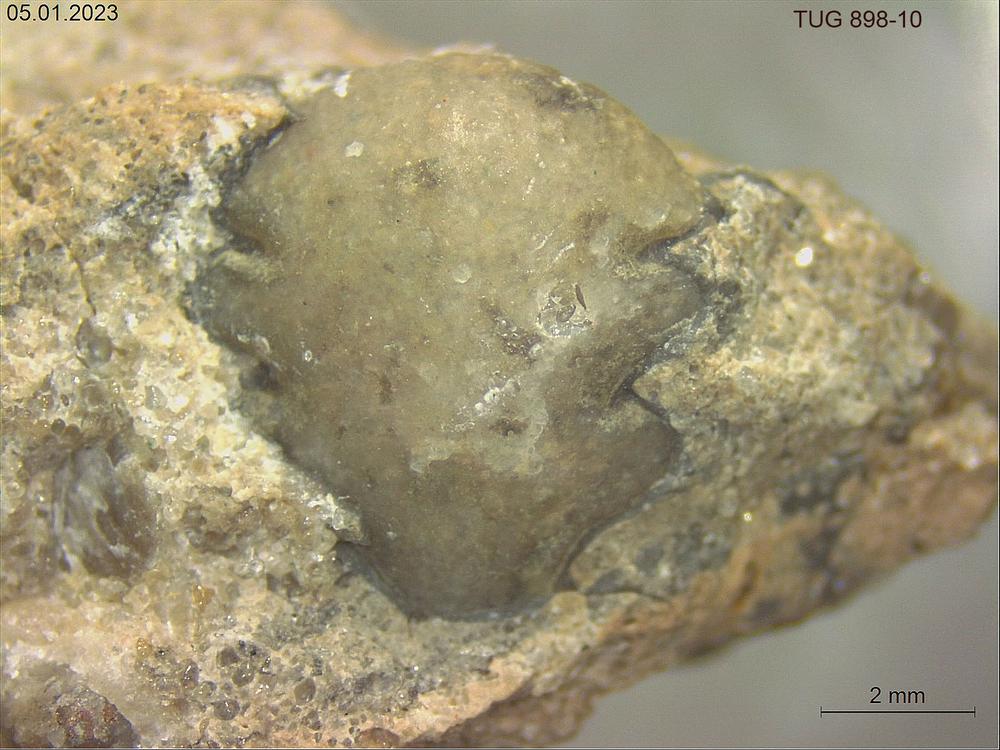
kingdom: Animalia
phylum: Arthropoda
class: Trilobita
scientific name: Trilobita
